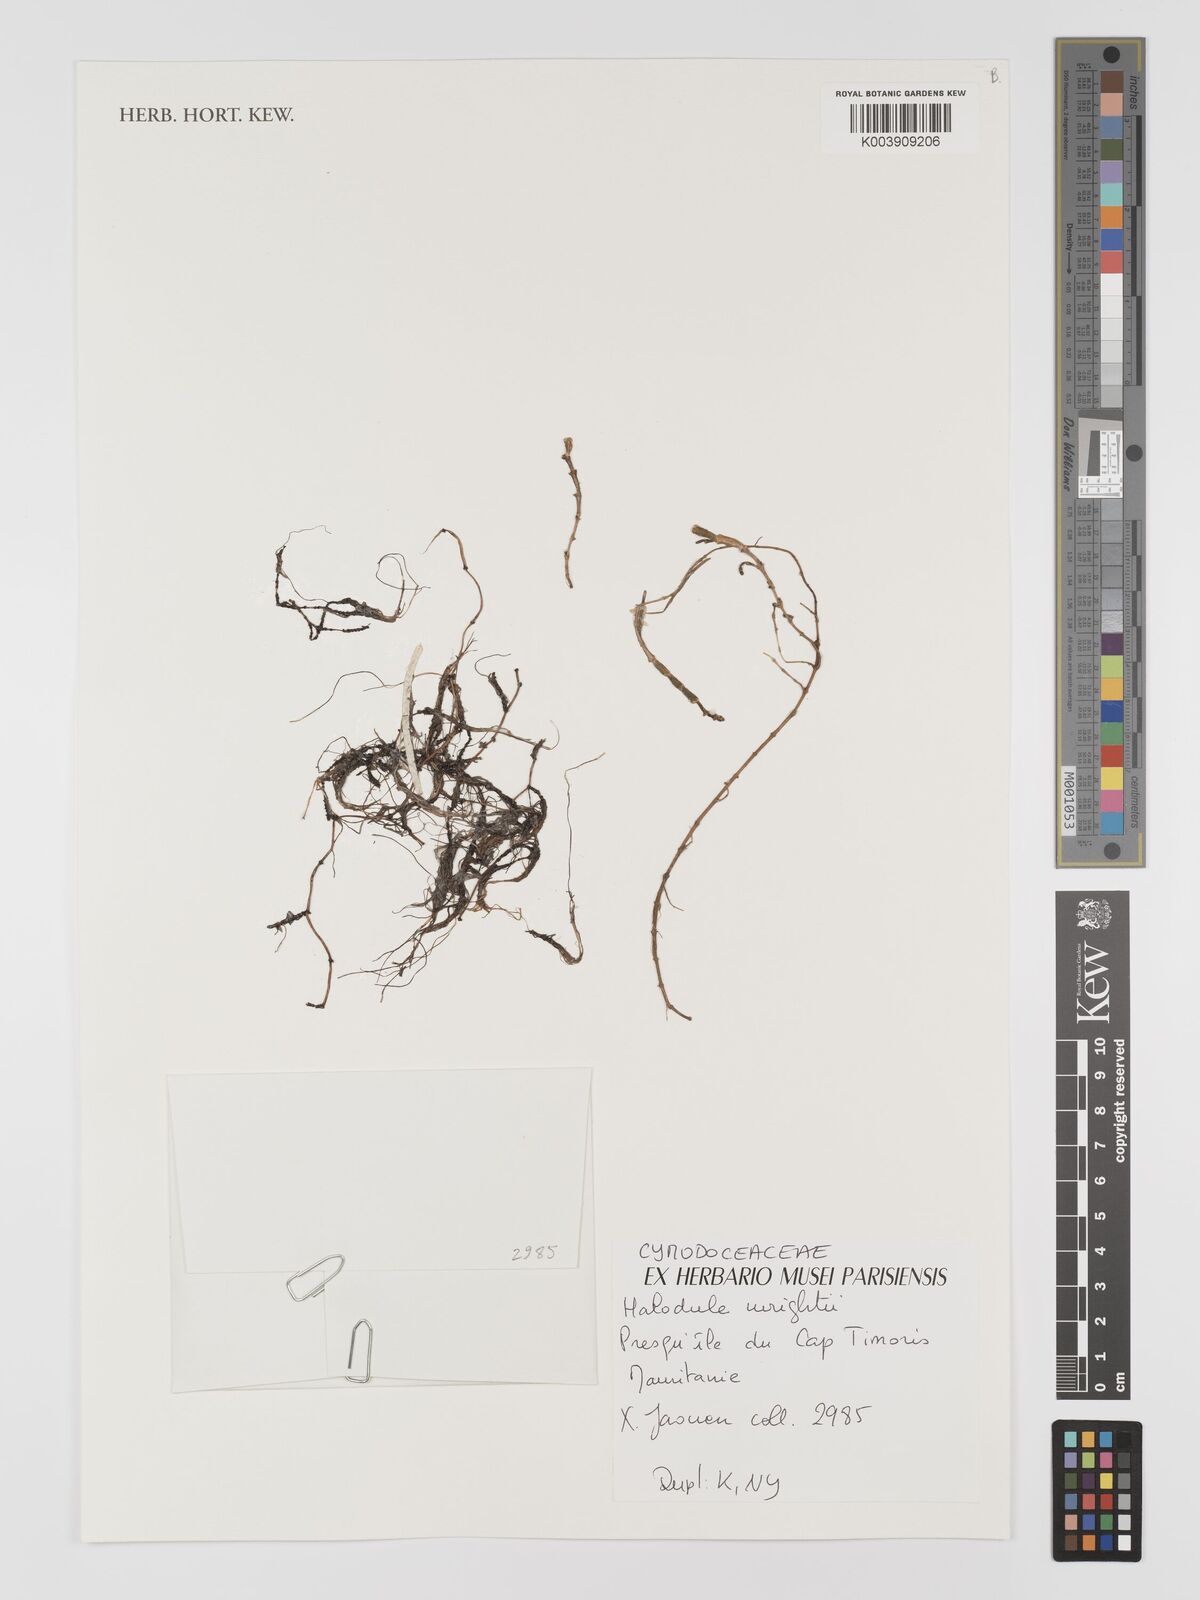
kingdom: Plantae
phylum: Tracheophyta
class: Liliopsida
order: Alismatales
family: Cymodoceaceae
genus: Halodule
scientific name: Halodule wrightii
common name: Shoalgrass
